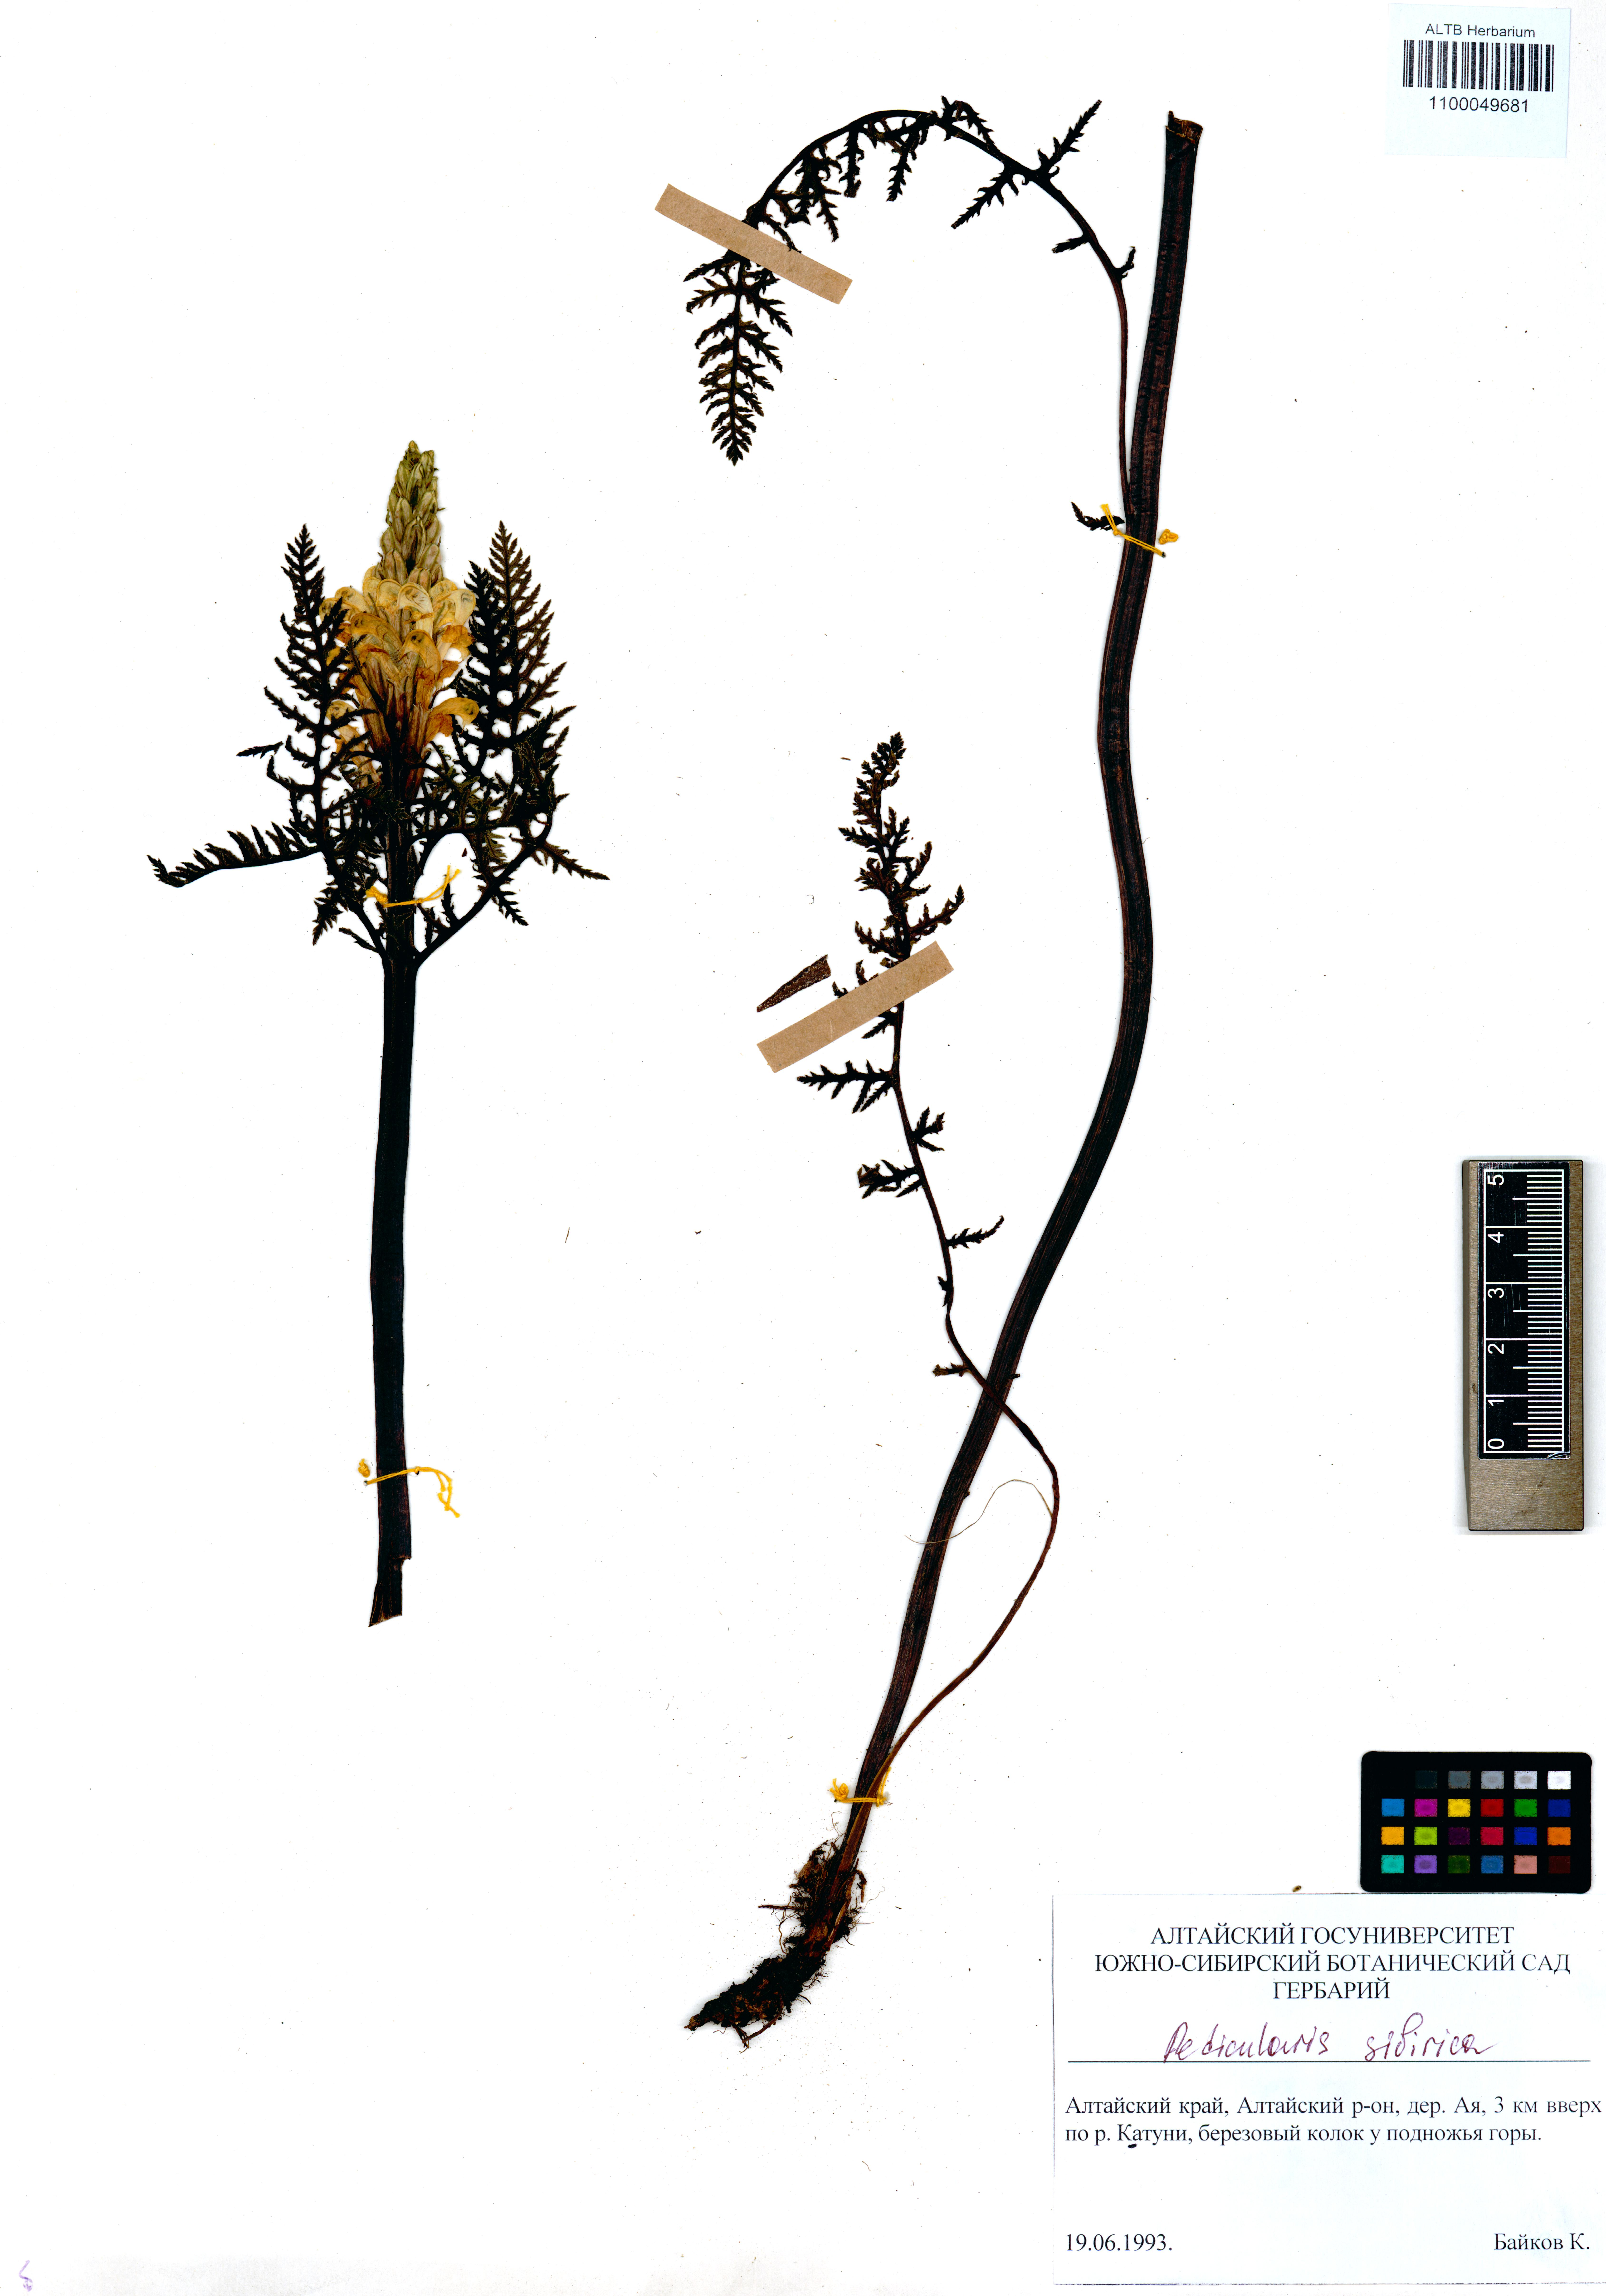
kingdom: Plantae
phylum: Tracheophyta
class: Magnoliopsida
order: Lamiales
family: Orobanchaceae
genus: Pedicularis
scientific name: Pedicularis sibirica
